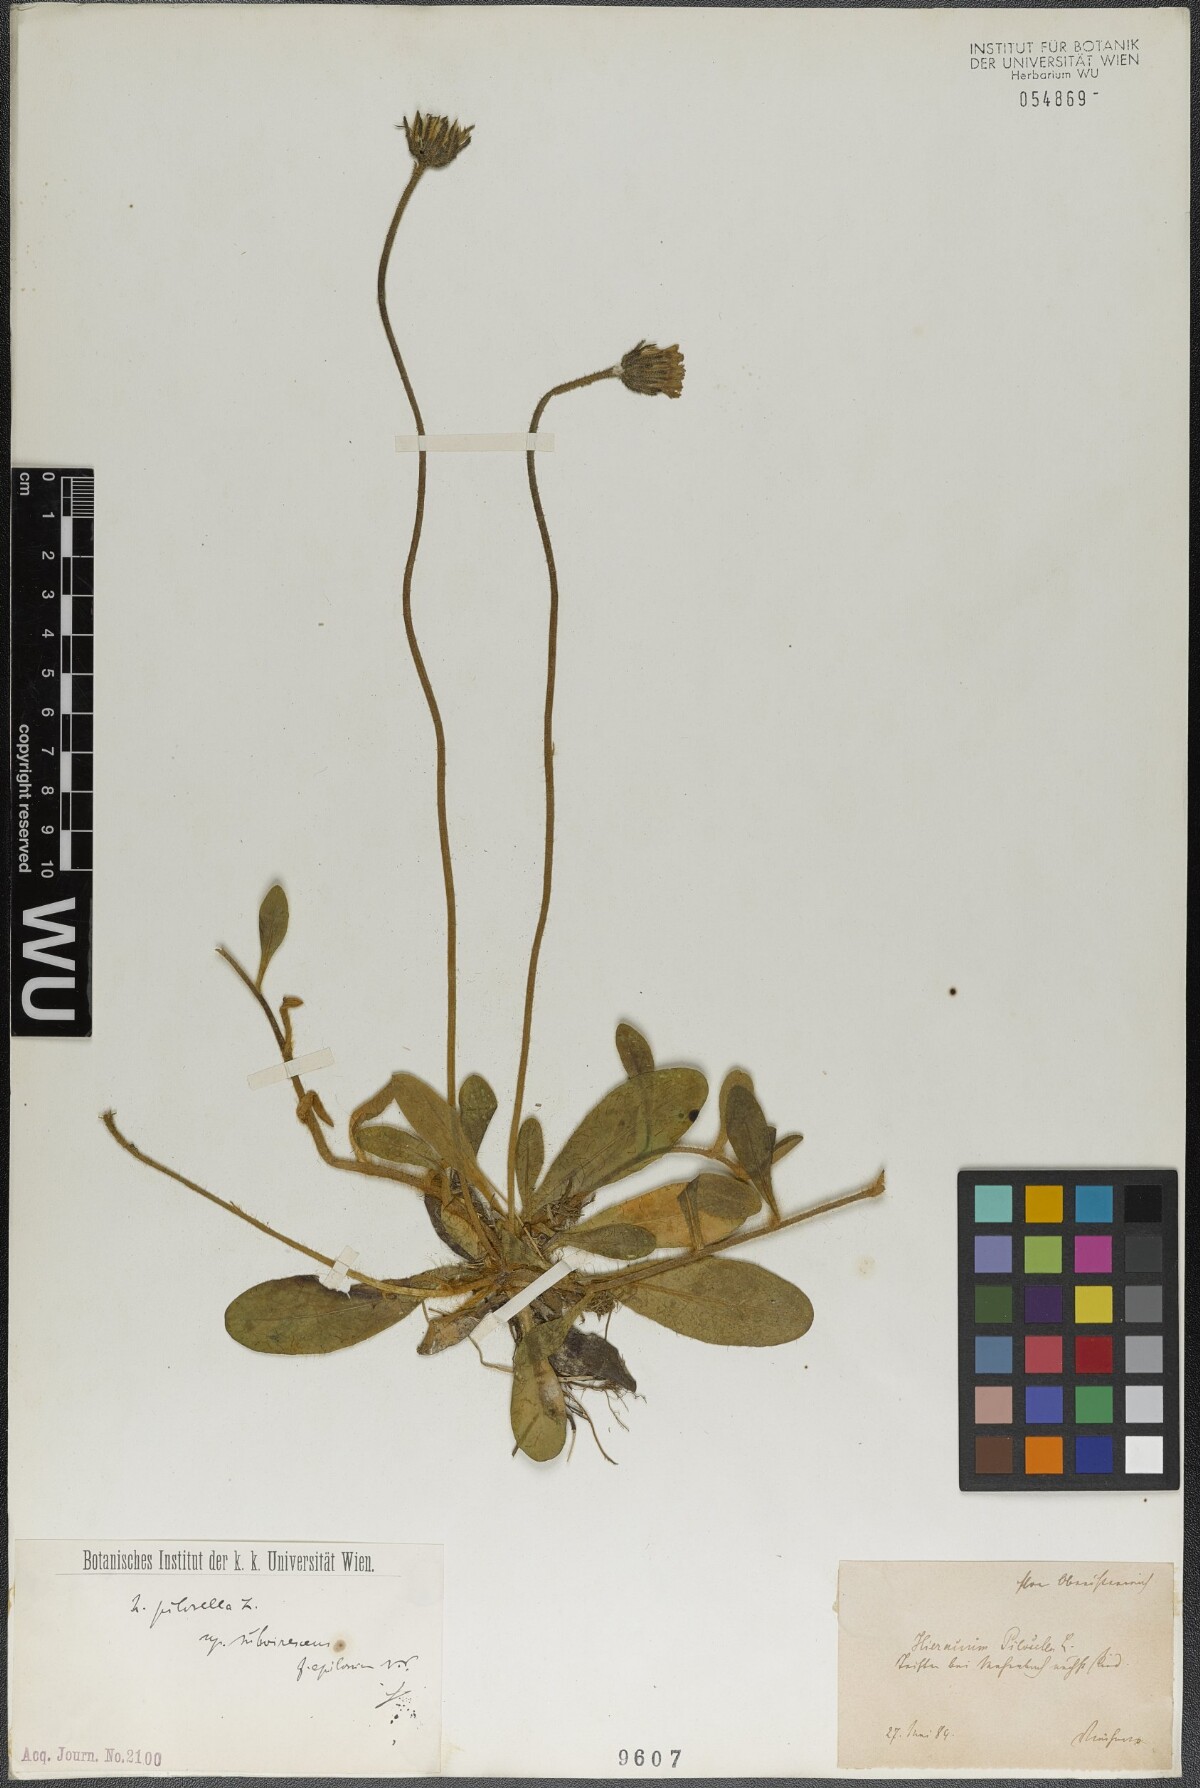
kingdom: Plantae
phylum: Tracheophyta
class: Magnoliopsida
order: Asterales
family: Asteraceae
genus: Pilosella
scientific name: Pilosella officinarum
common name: Mouse-ear hawkweed
